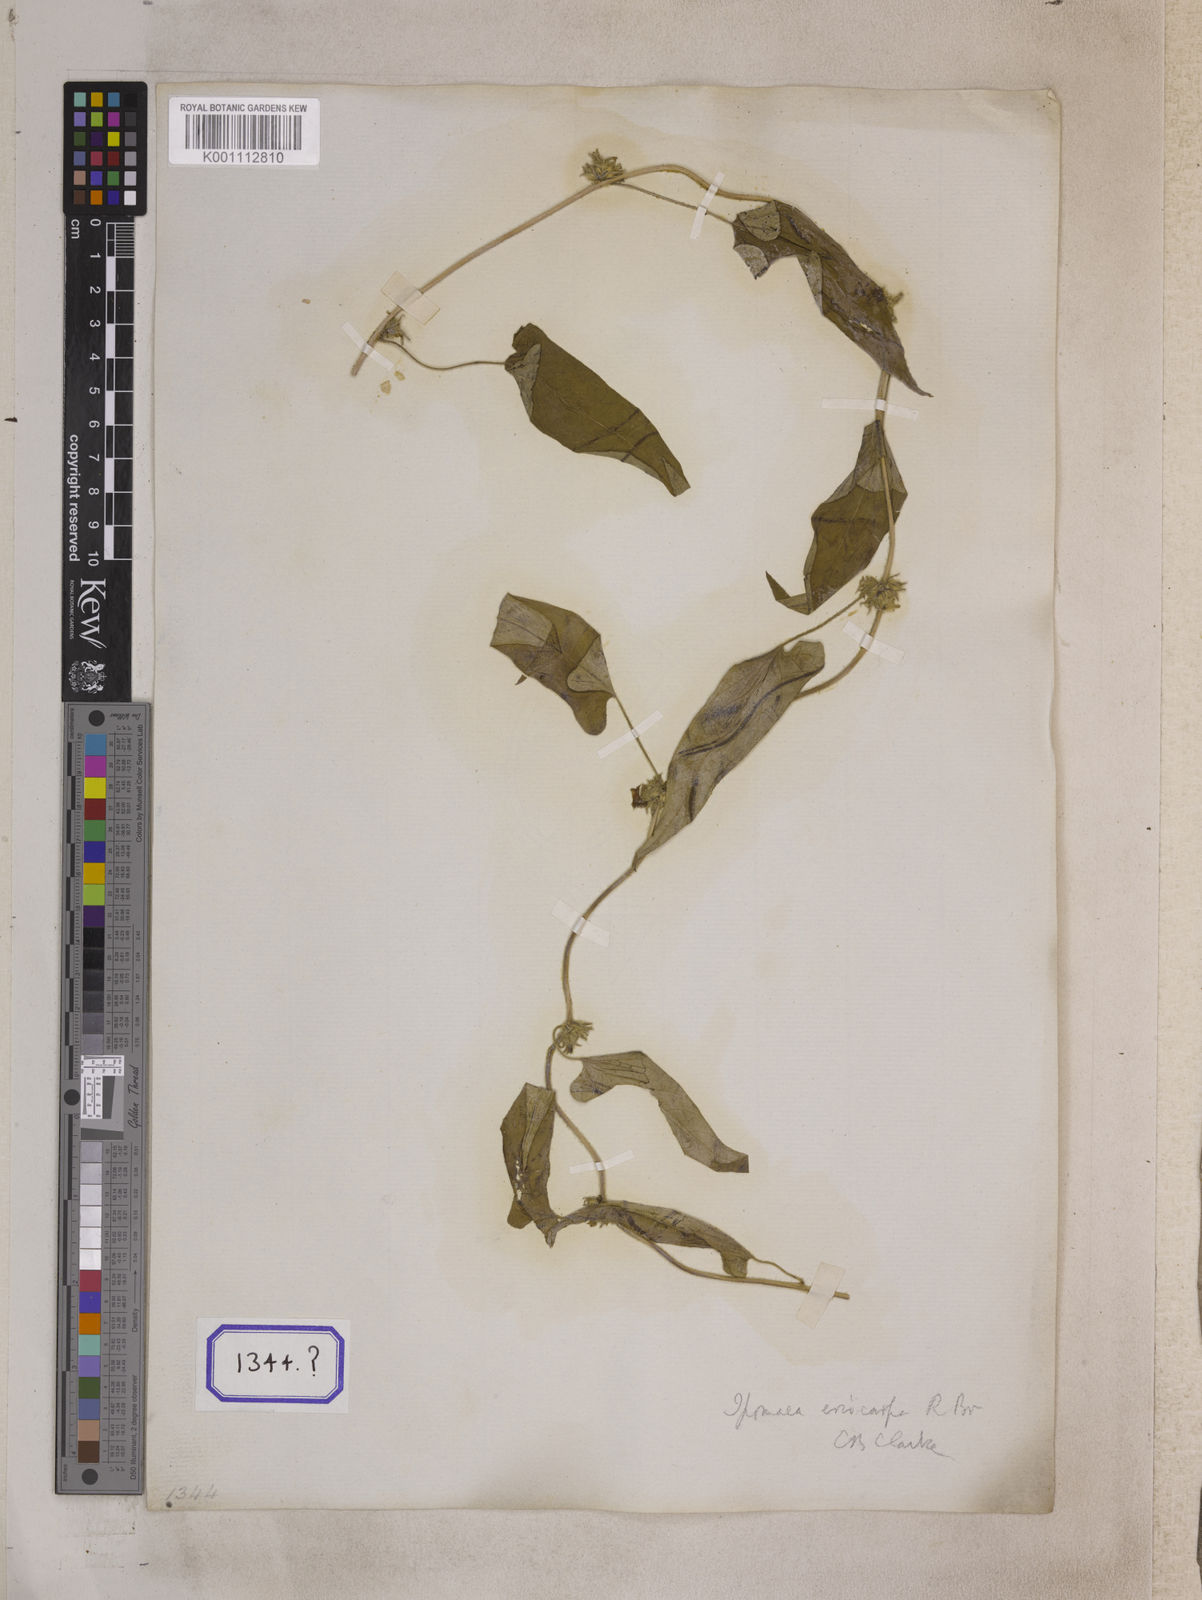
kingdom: Plantae
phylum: Tracheophyta
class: Magnoliopsida
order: Solanales
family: Convolvulaceae
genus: Argyreia
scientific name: Argyreia atropurpurea
